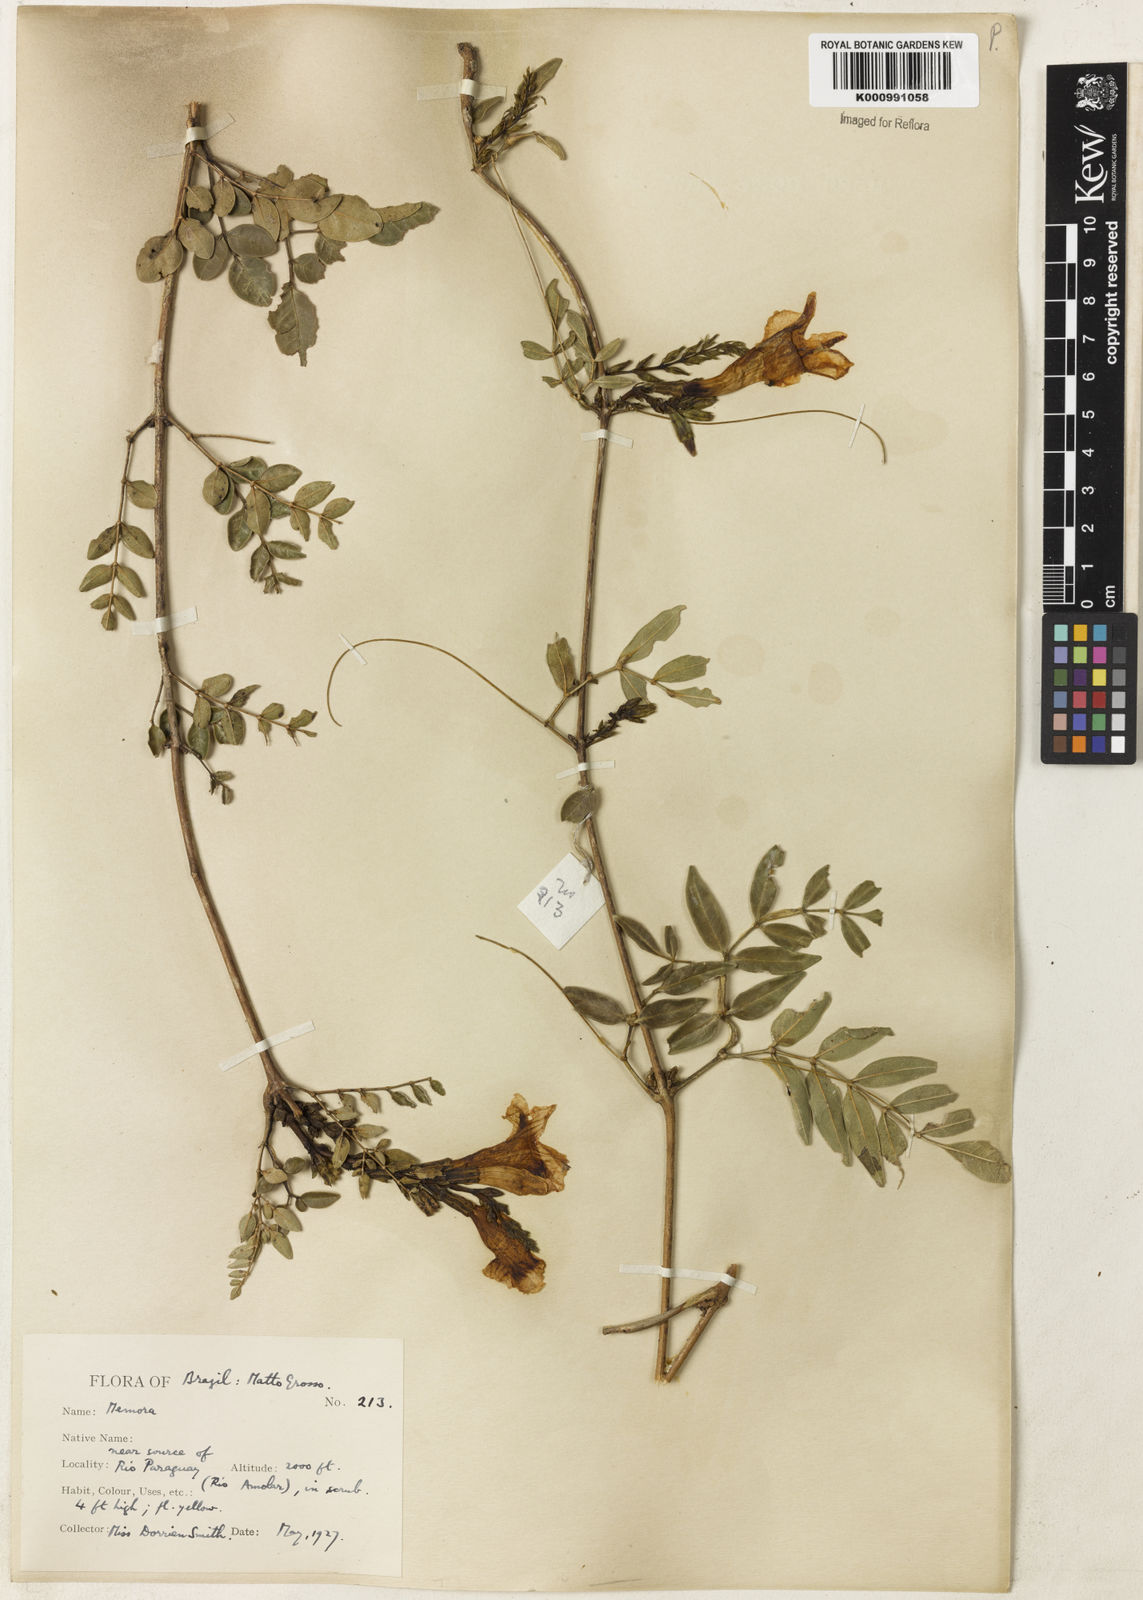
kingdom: Plantae
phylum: Tracheophyta
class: Magnoliopsida
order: Lamiales
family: Bignoniaceae
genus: Adenocalymma
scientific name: Adenocalymma campicola
